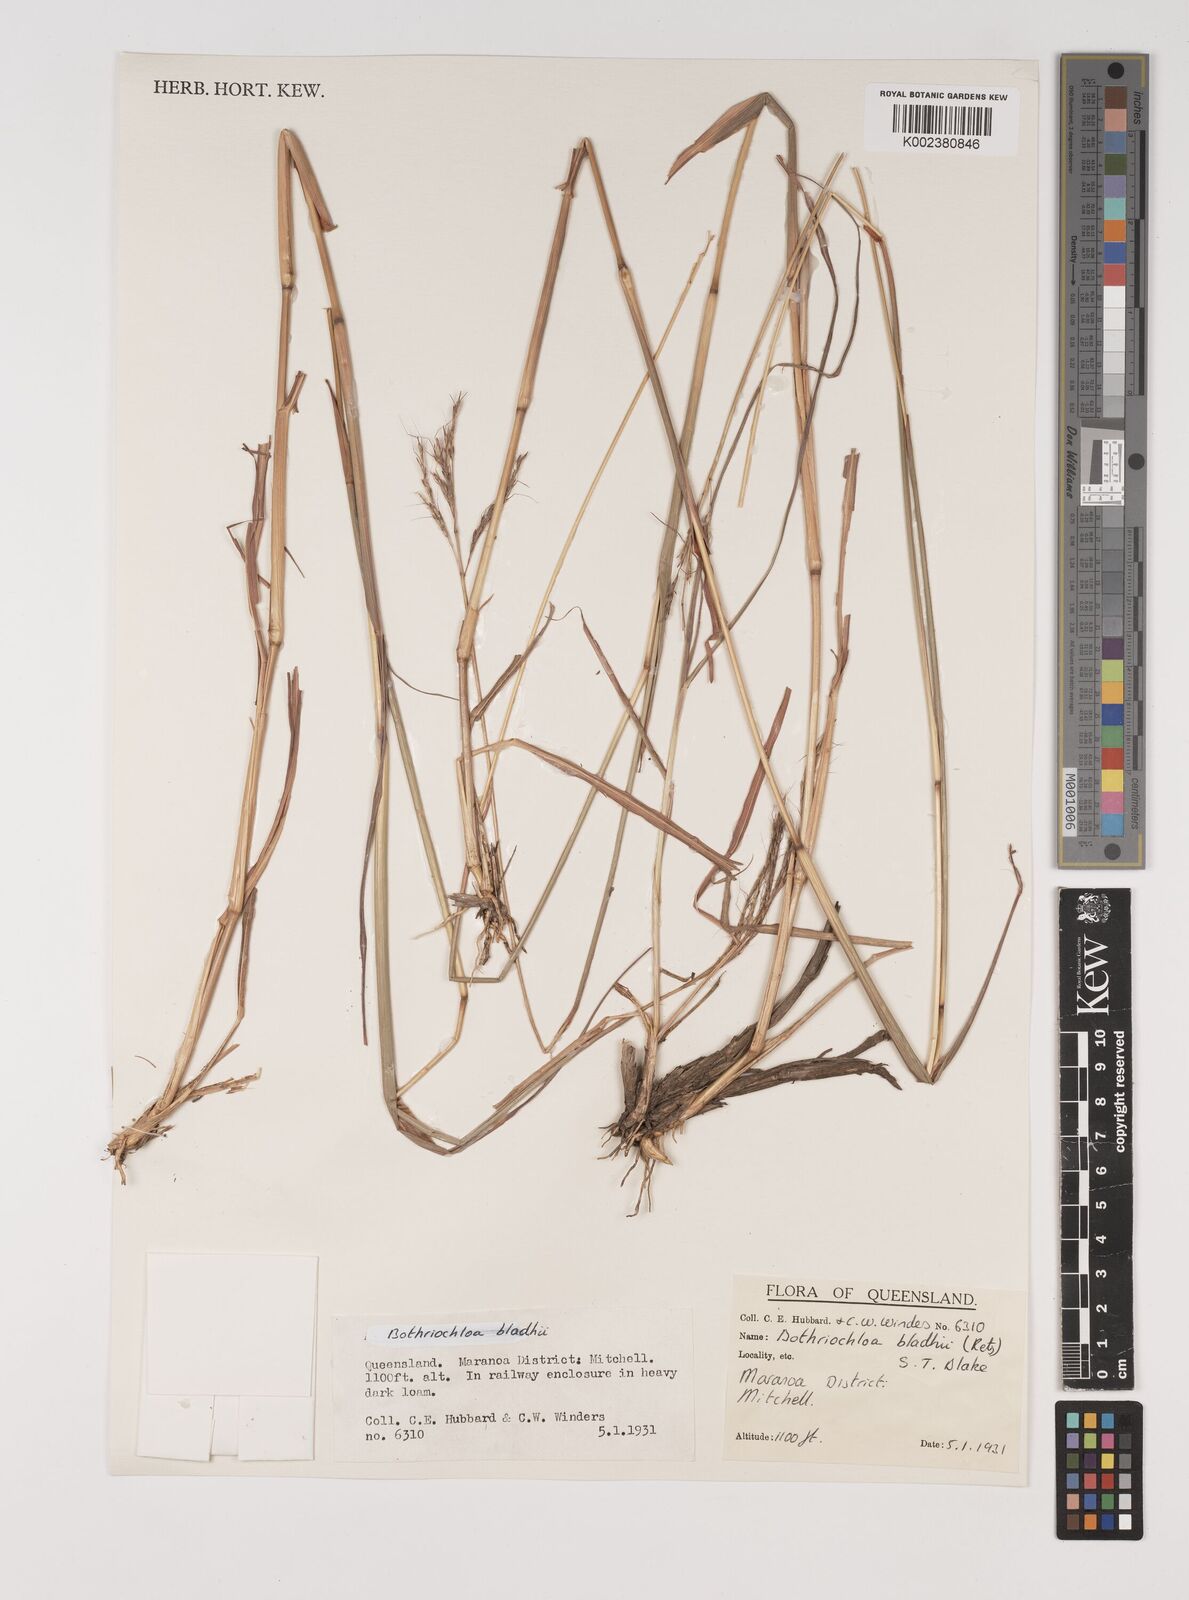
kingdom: Plantae
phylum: Tracheophyta
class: Liliopsida
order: Poales
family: Poaceae
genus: Bothriochloa
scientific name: Bothriochloa bladhii
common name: Caucasian bluestem
